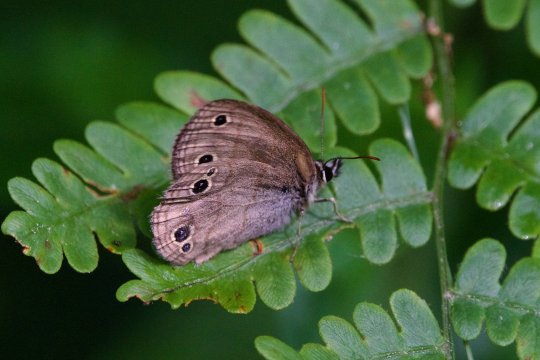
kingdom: Animalia
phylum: Arthropoda
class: Insecta
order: Lepidoptera
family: Nymphalidae
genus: Euptychia
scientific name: Euptychia cymela
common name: Little Wood Satyr
